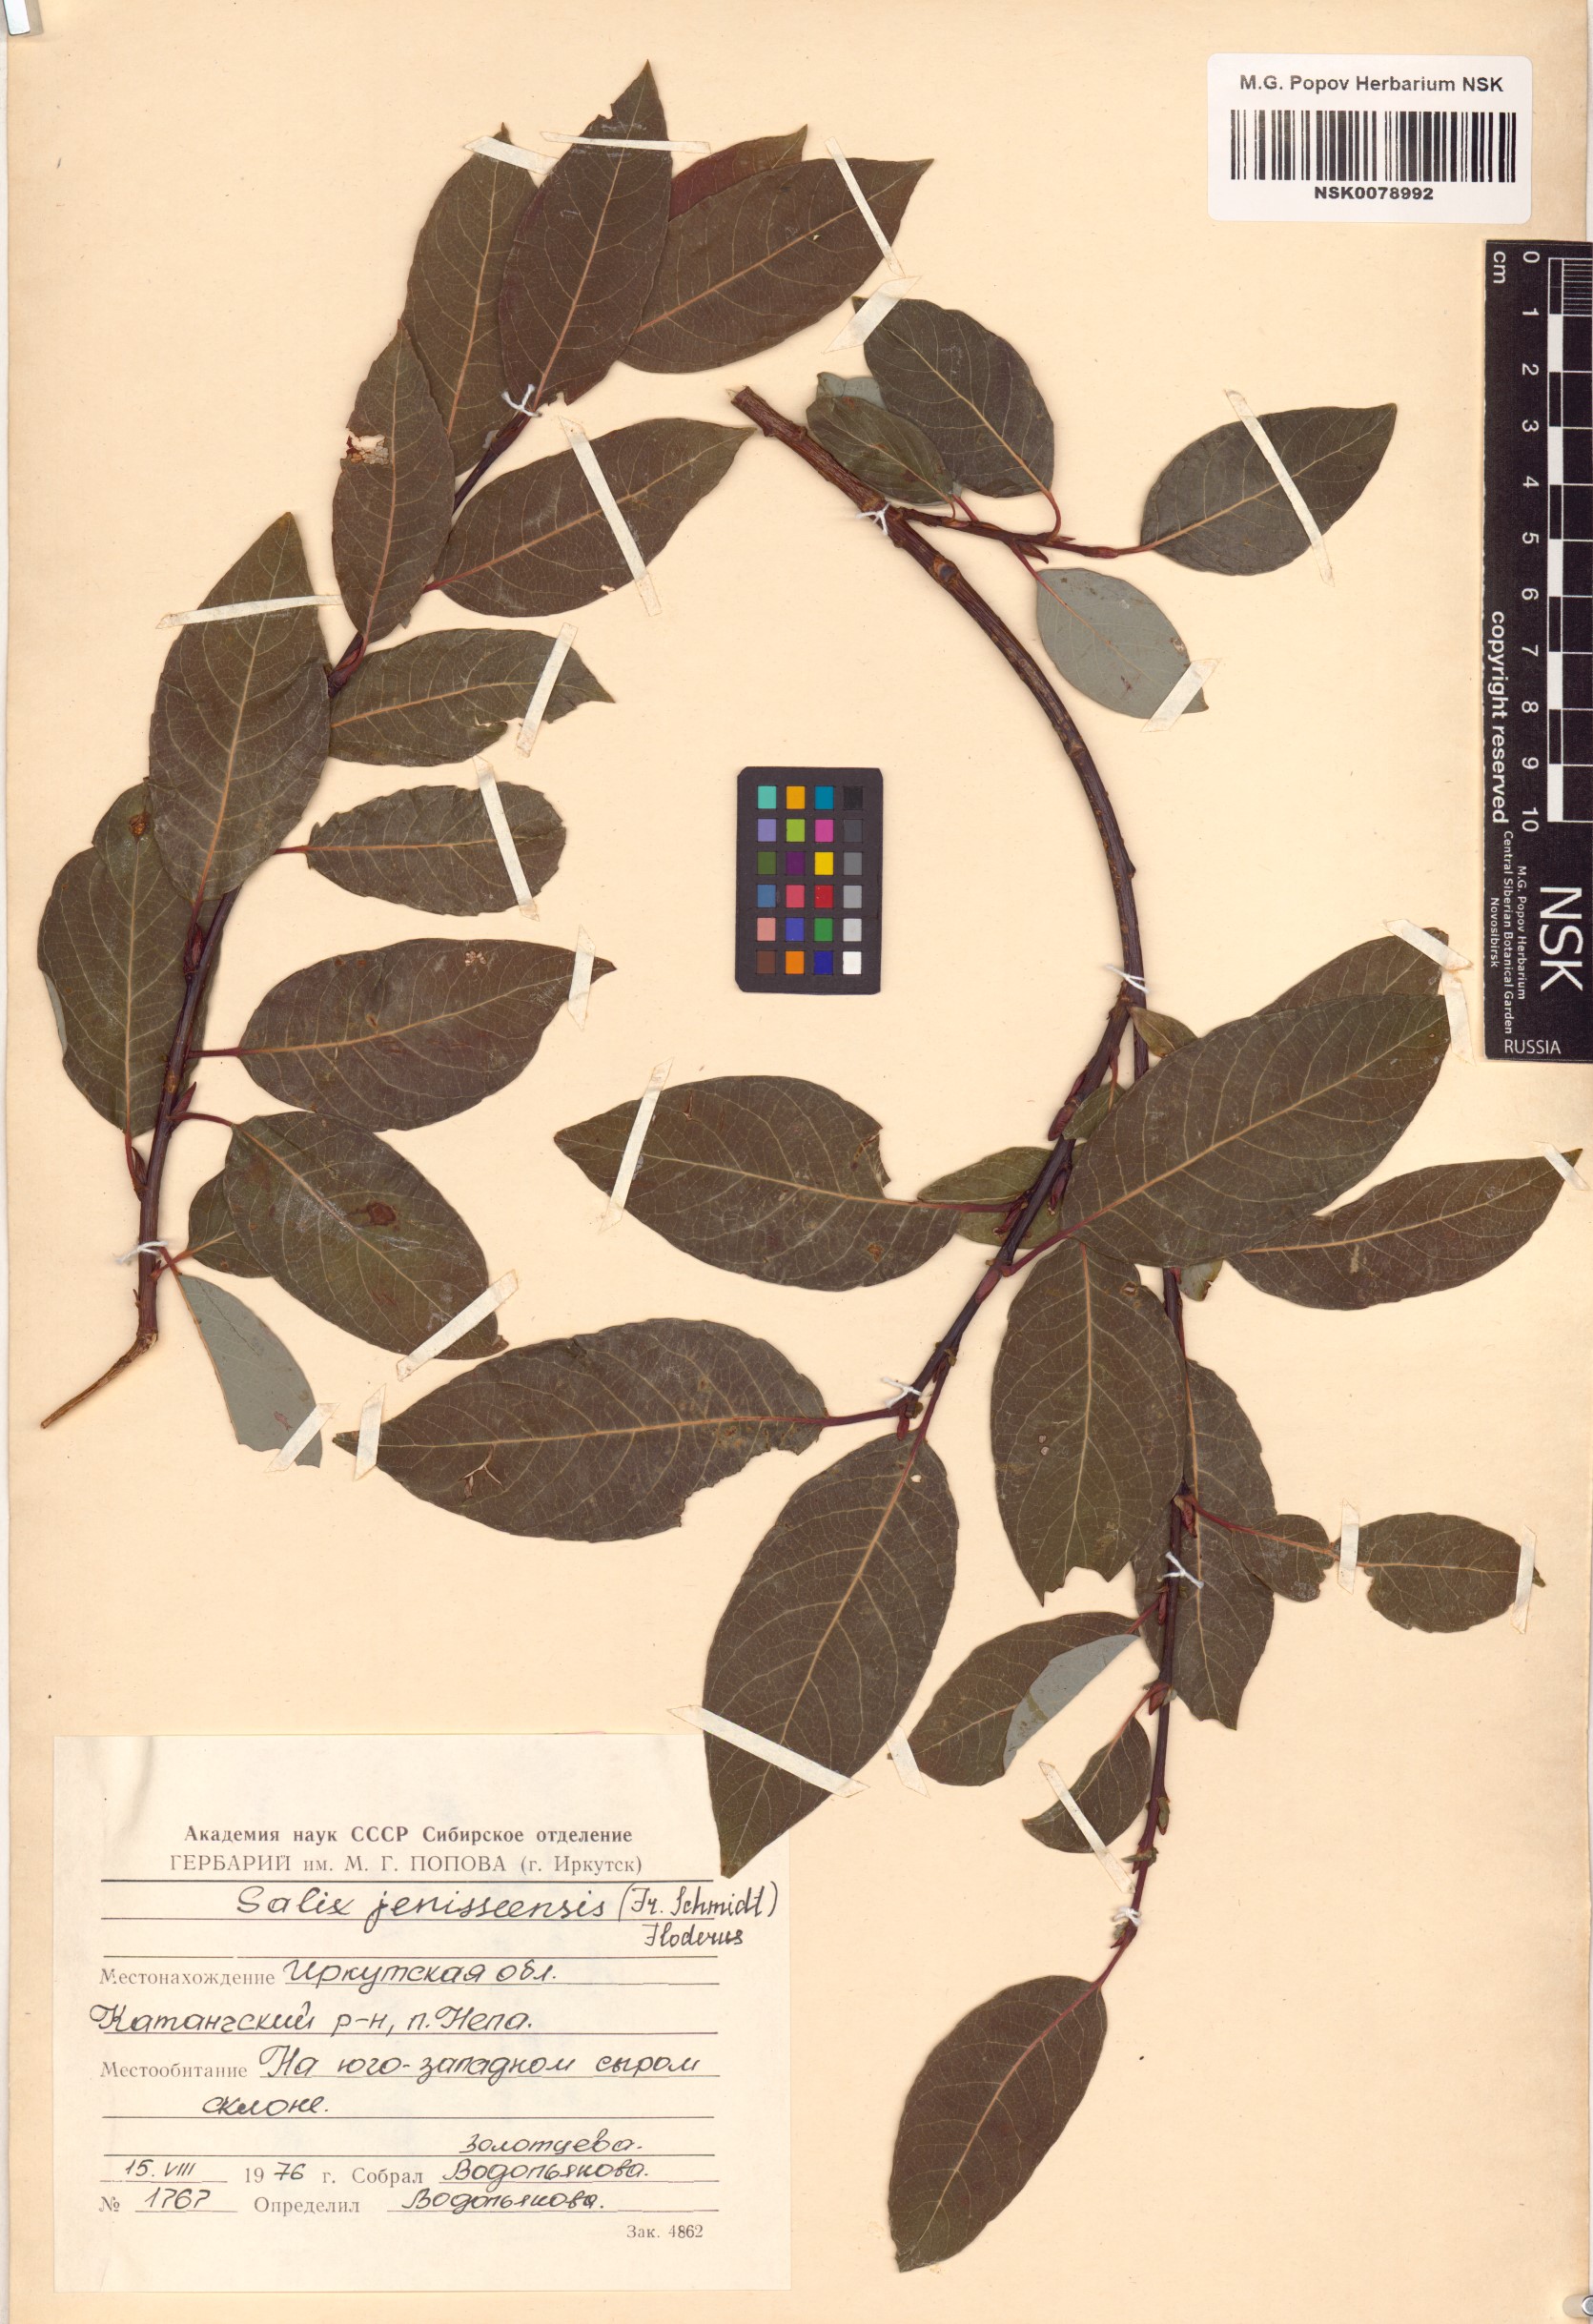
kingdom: Plantae
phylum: Tracheophyta
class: Magnoliopsida
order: Malpighiales
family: Salicaceae
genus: Salix
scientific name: Salix jenisseensis
